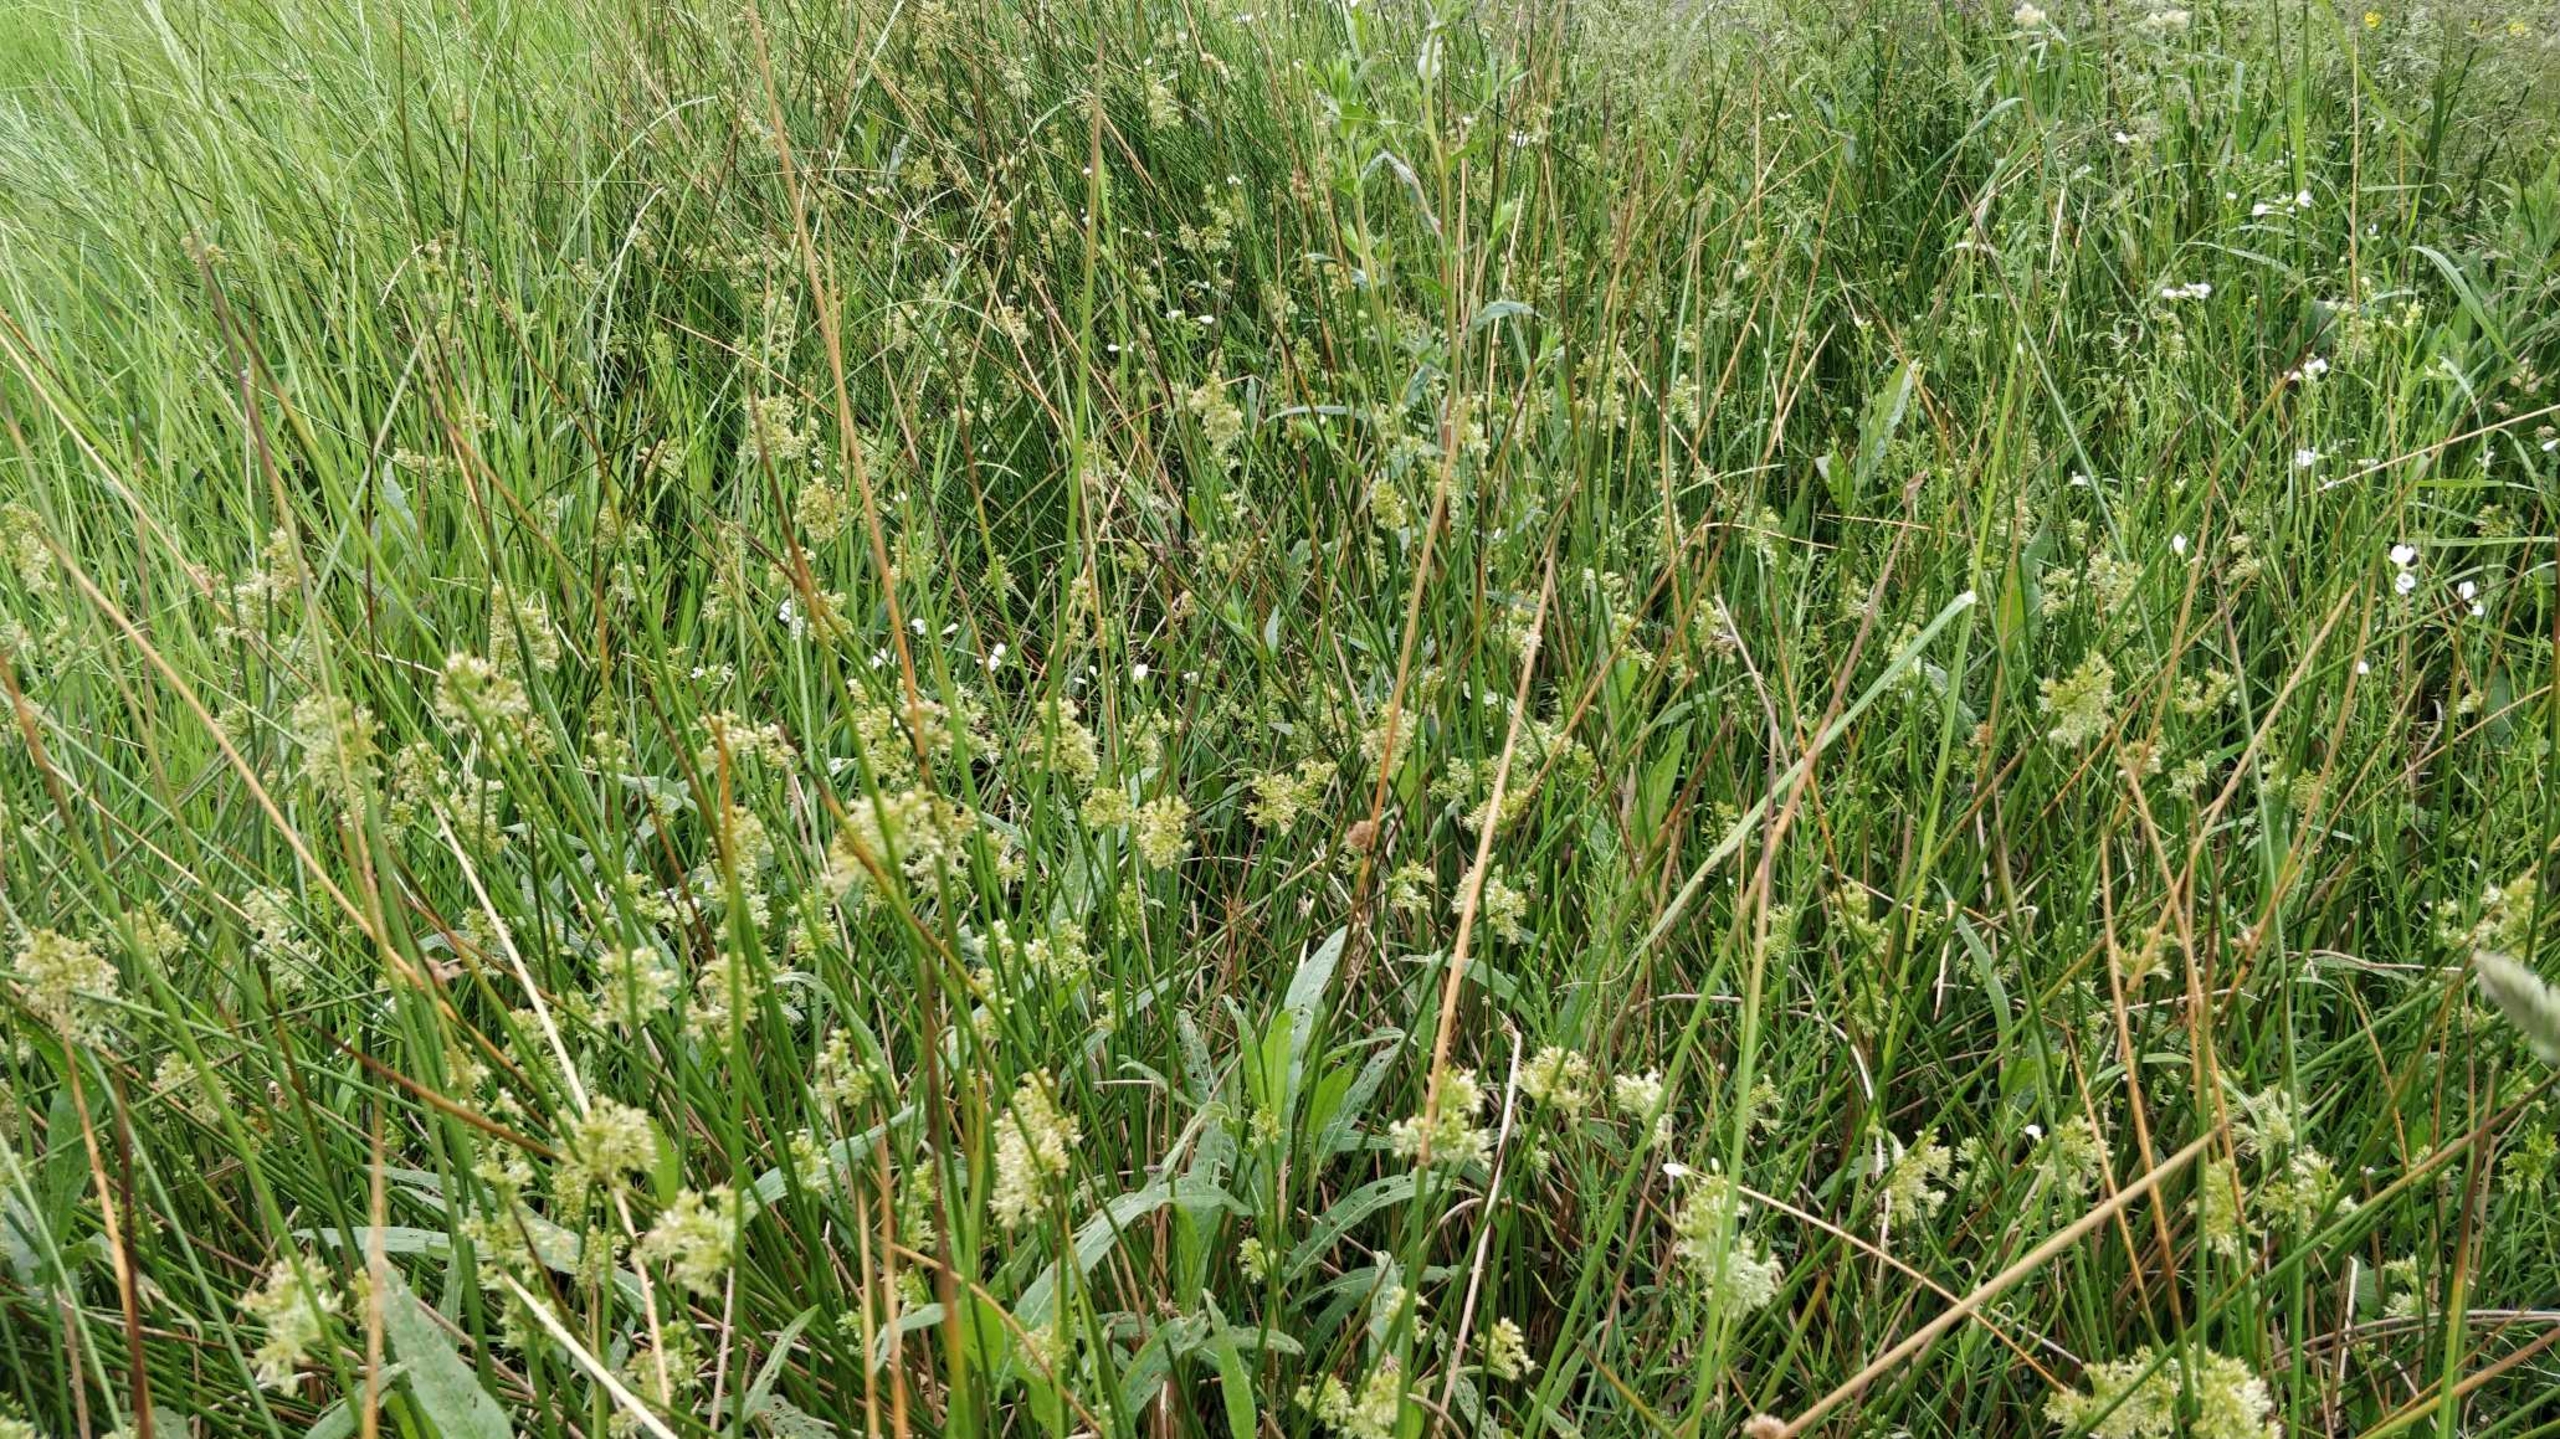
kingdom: Plantae
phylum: Tracheophyta
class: Liliopsida
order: Poales
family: Juncaceae
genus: Juncus
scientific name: Juncus effusus
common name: Lyse-siv
